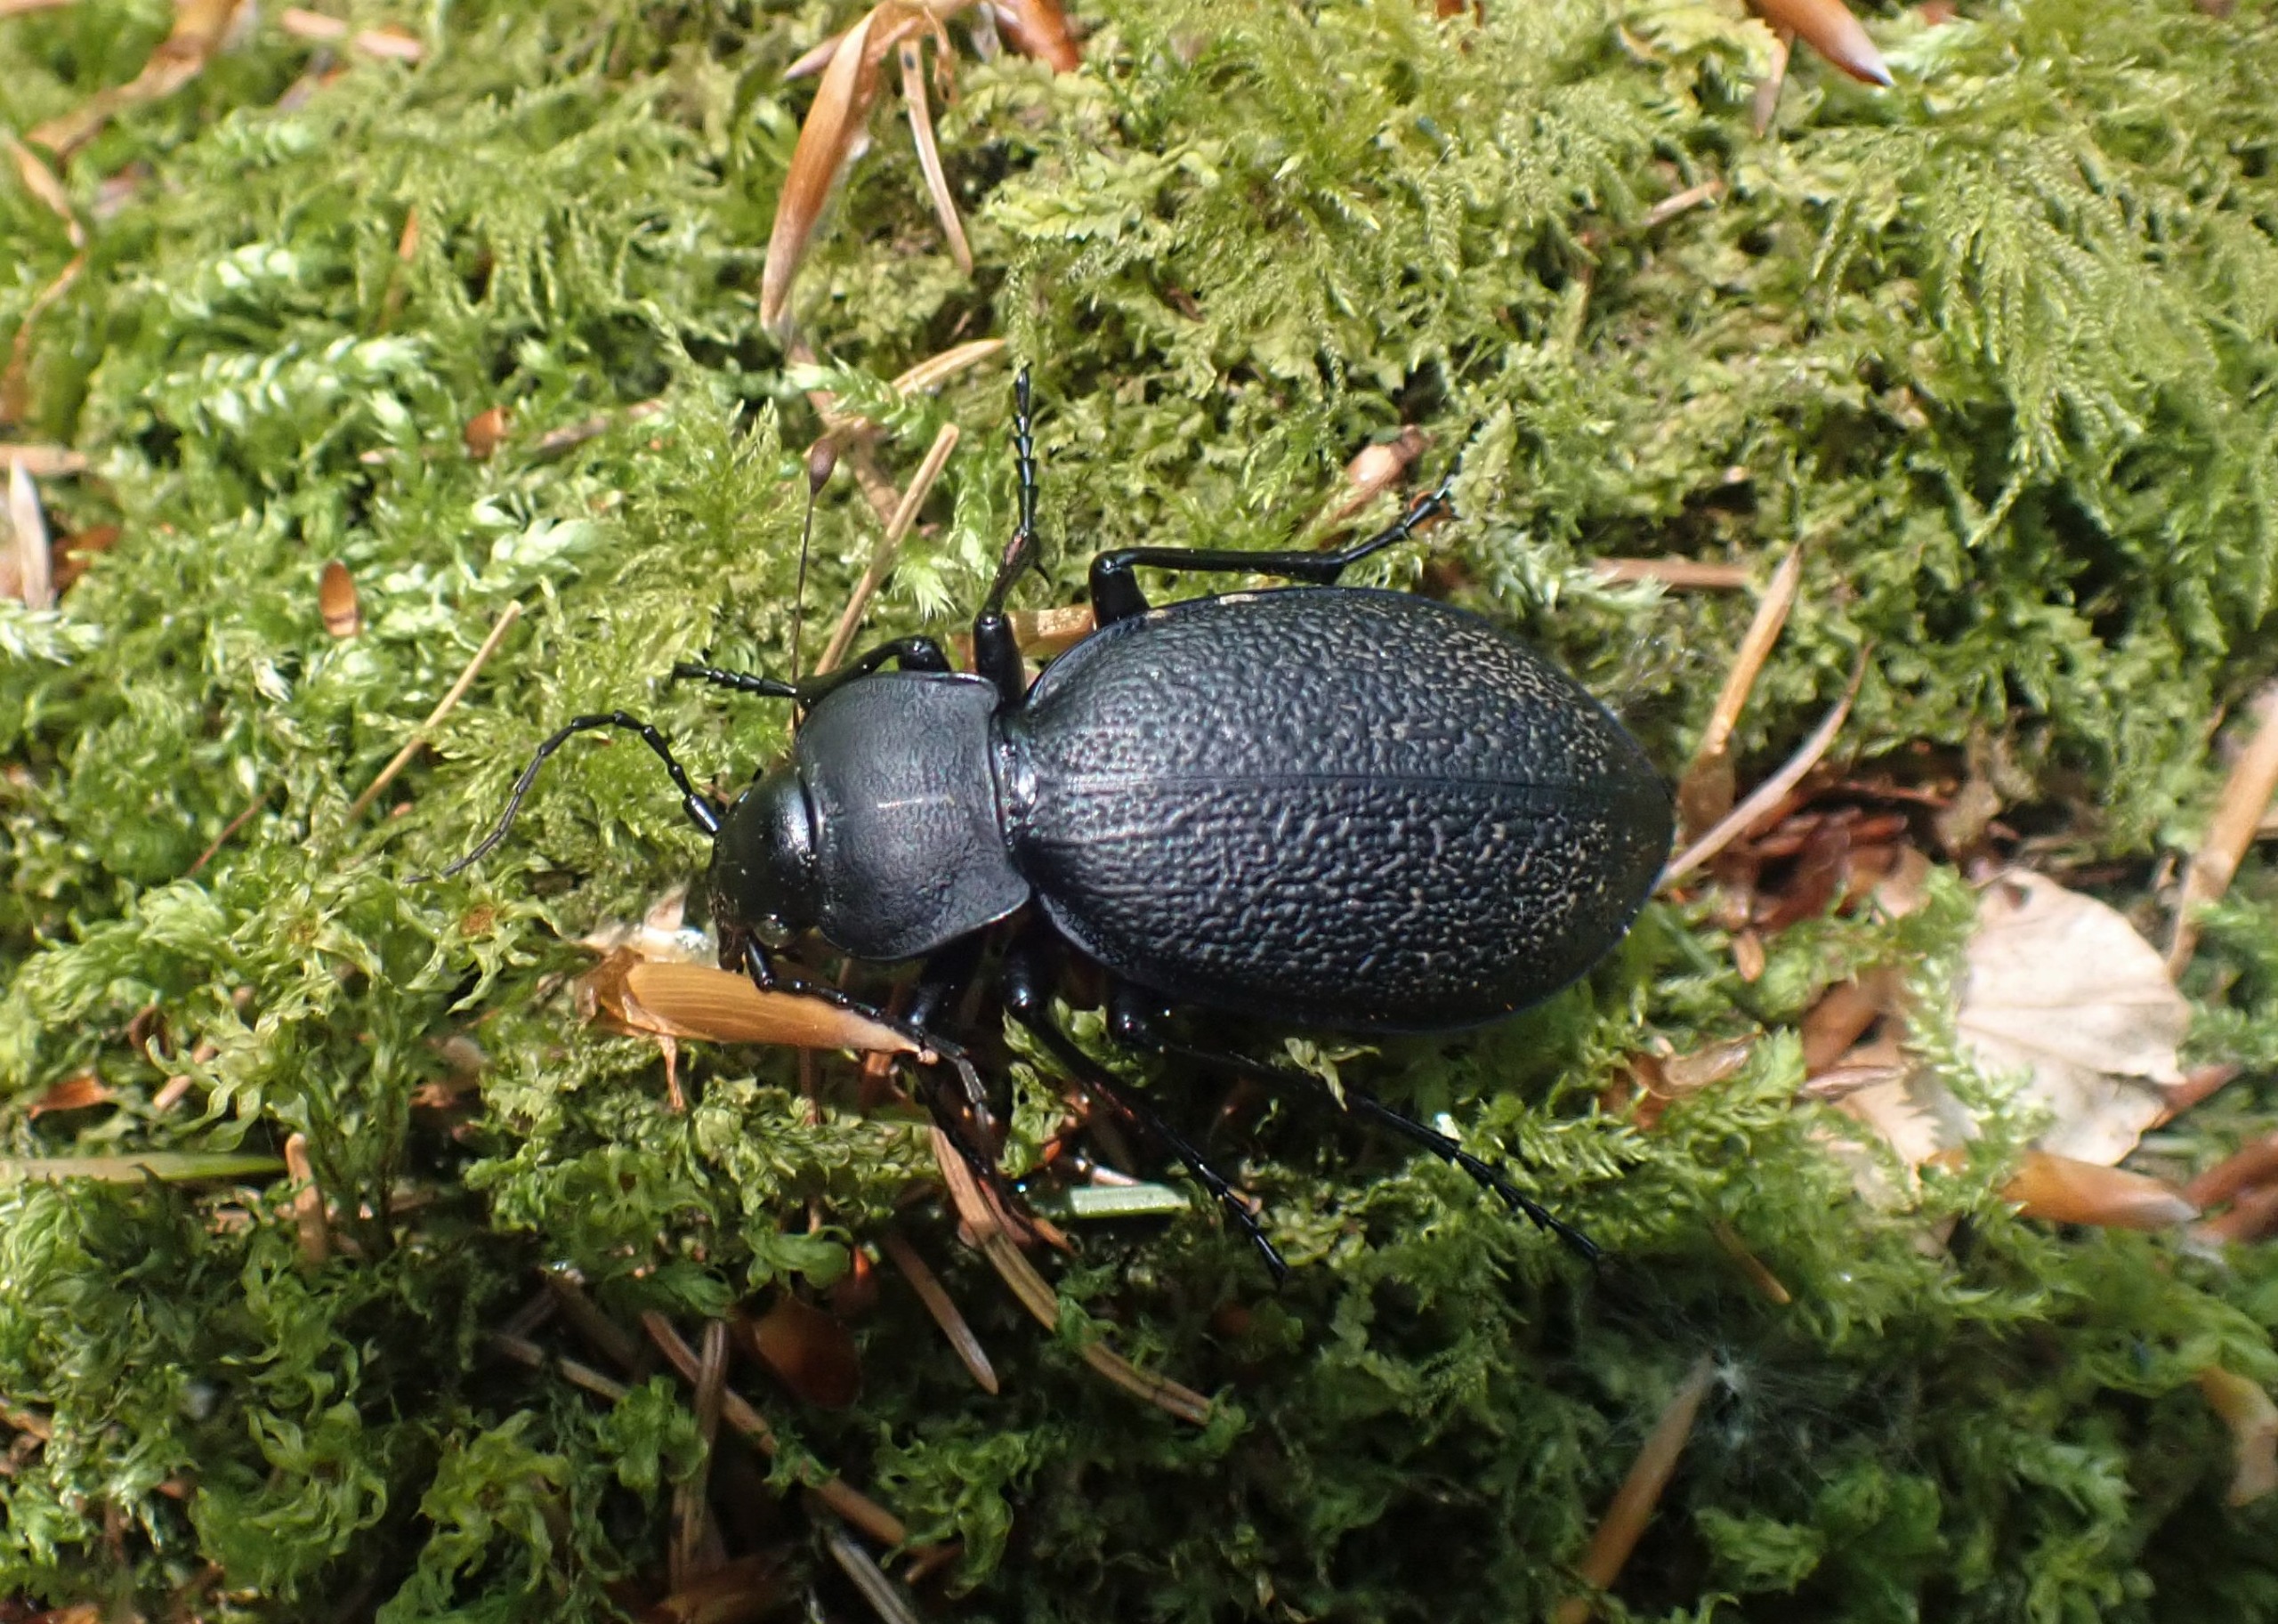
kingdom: Animalia
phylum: Arthropoda
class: Insecta
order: Coleoptera
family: Carabidae
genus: Carabus
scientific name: Carabus coriaceus
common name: Læderløber
